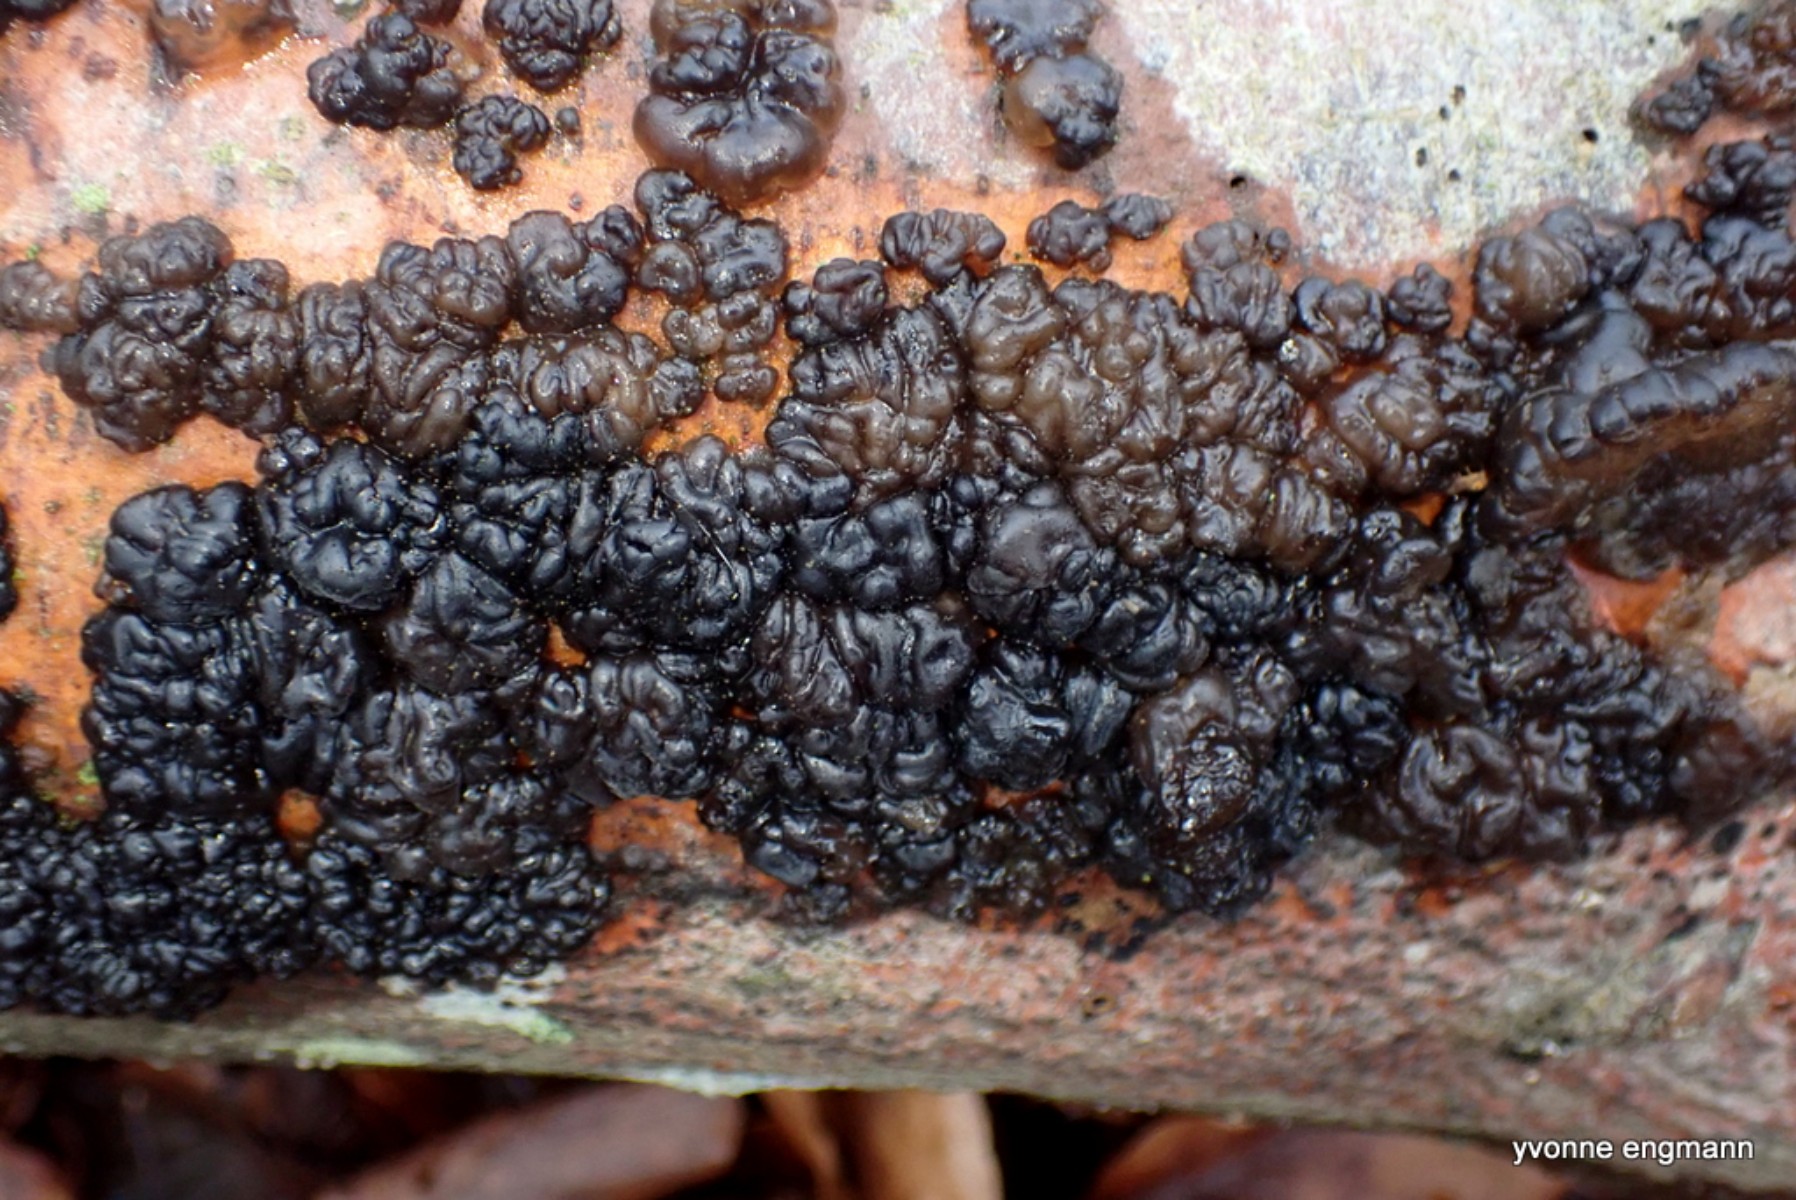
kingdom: Fungi
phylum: Basidiomycota
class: Agaricomycetes
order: Auriculariales
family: Auriculariaceae
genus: Exidia
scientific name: Exidia nigricans
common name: almindelig bævretop
